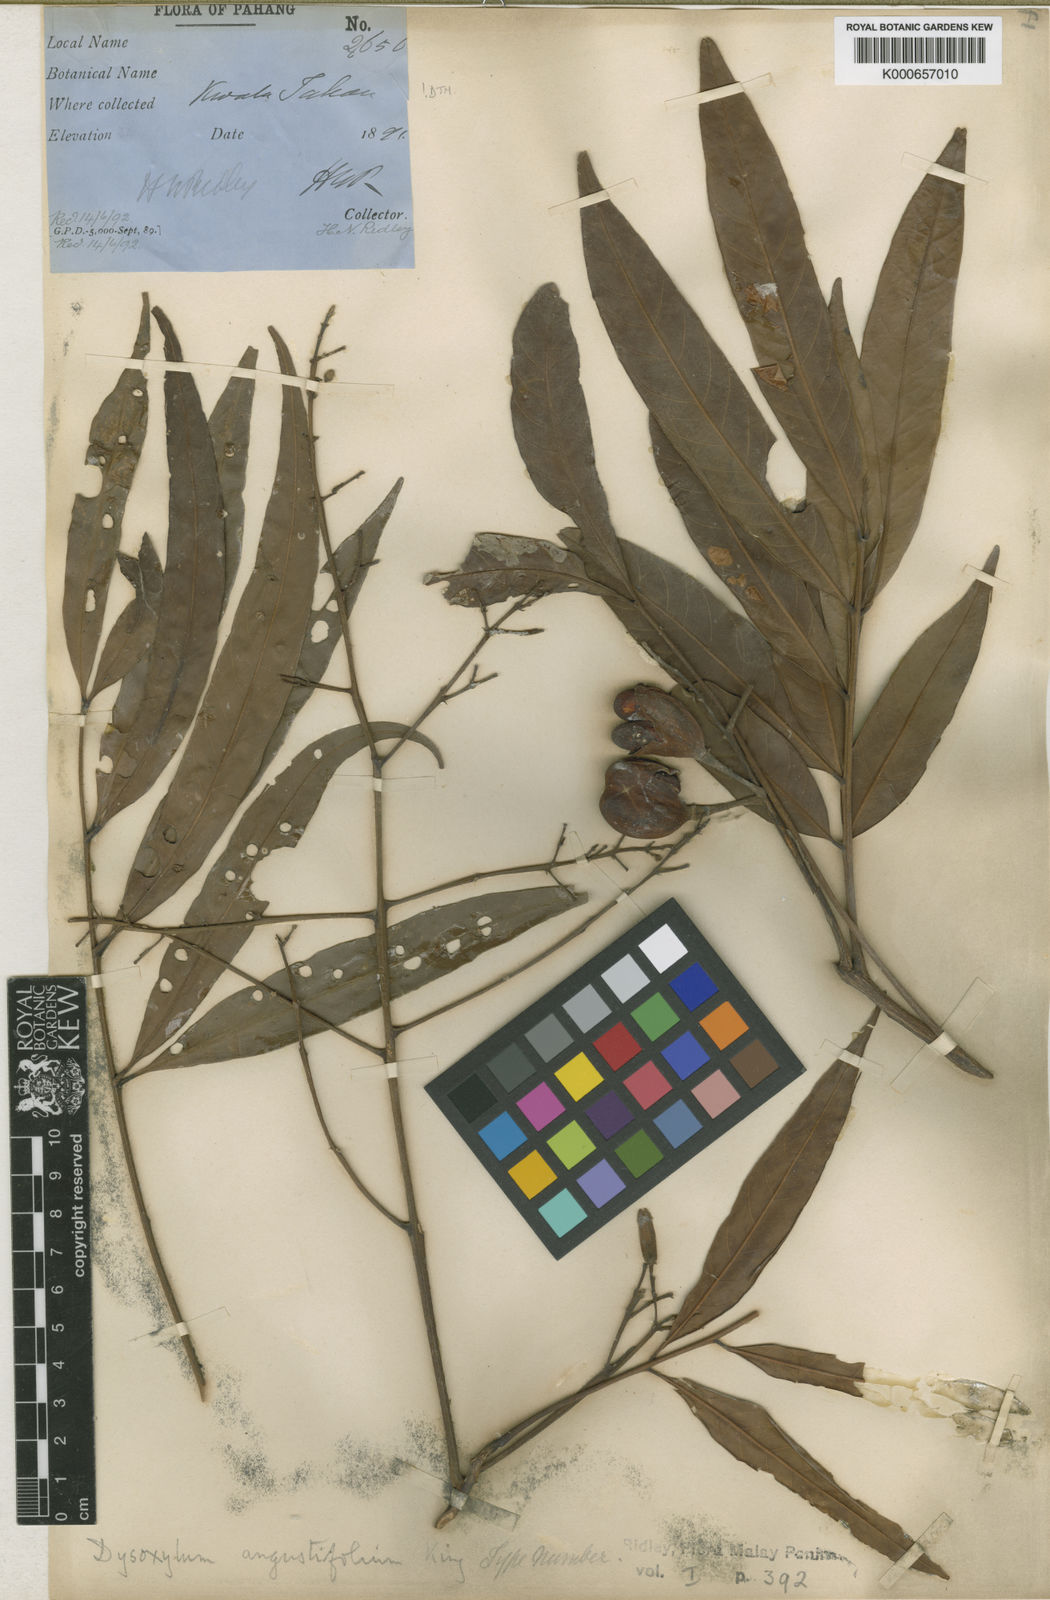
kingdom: Plantae
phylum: Tracheophyta
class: Magnoliopsida
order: Sapindales
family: Meliaceae
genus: Prasoxylon
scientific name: Prasoxylon angustifolium
